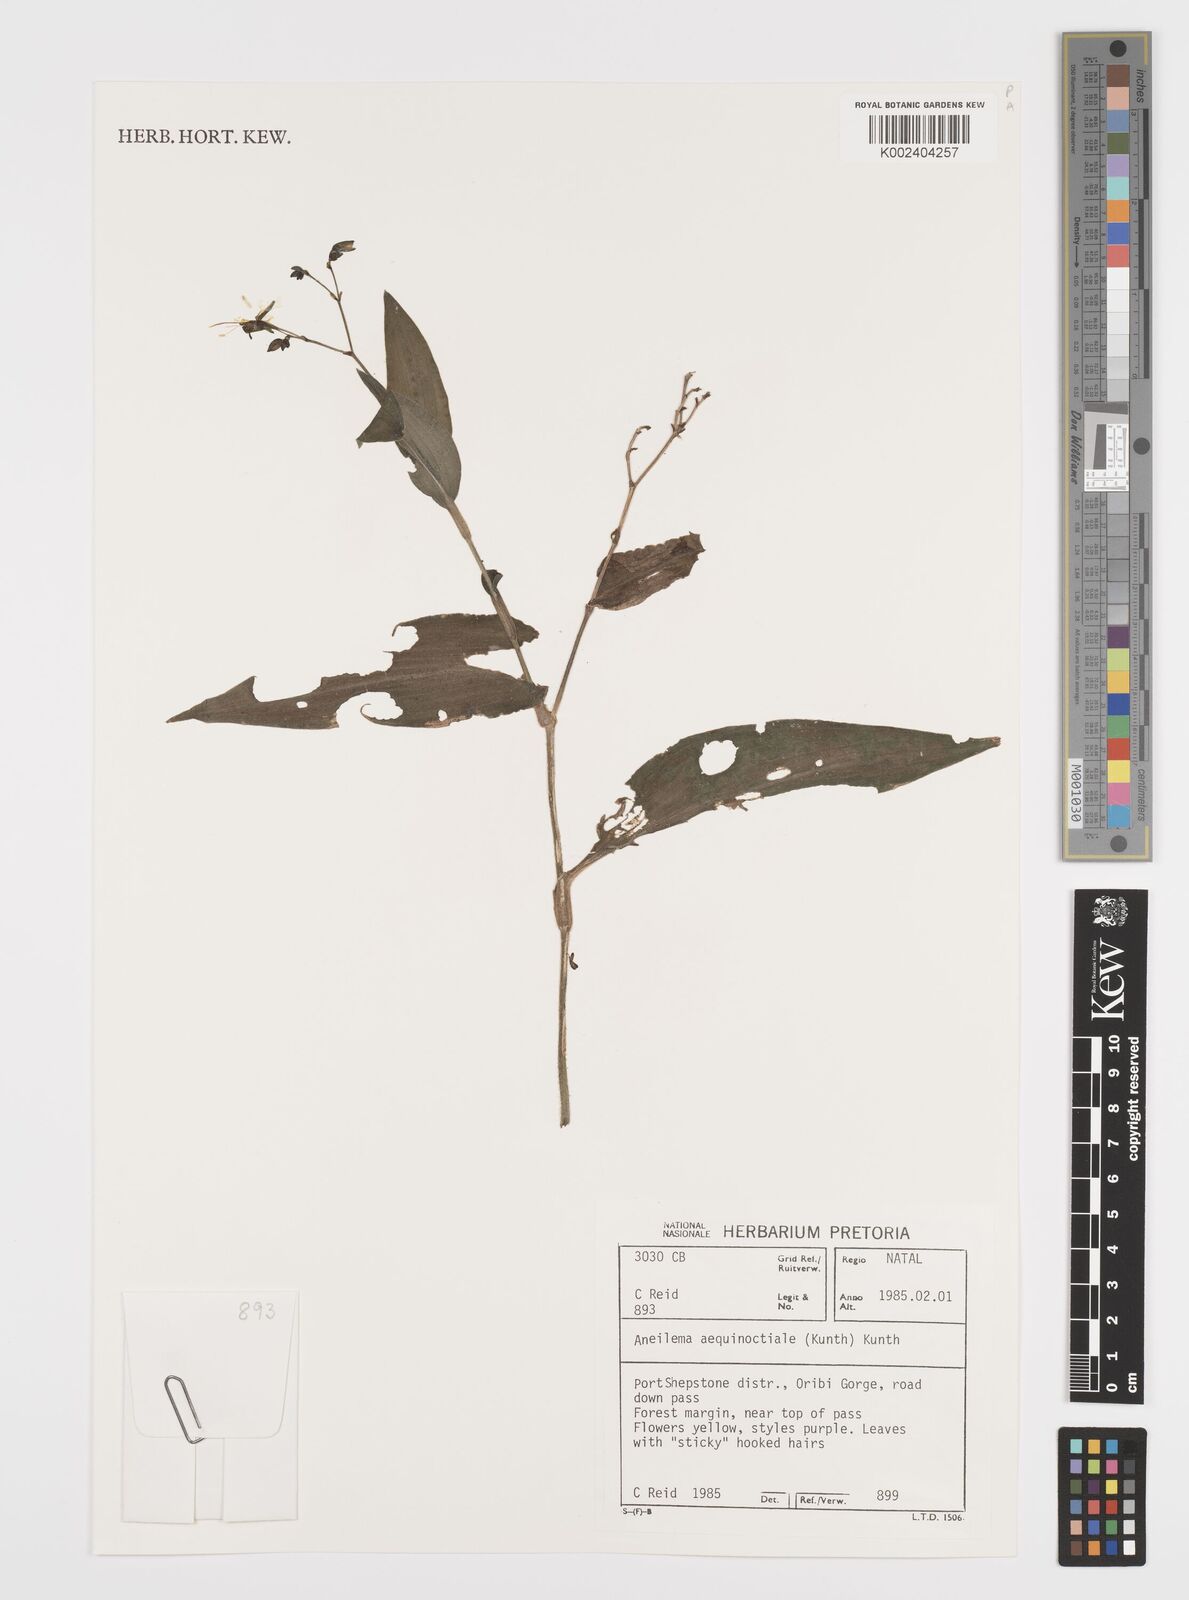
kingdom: Plantae
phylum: Tracheophyta
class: Liliopsida
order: Commelinales
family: Commelinaceae
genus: Aneilema
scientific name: Aneilema aequinoctiale
